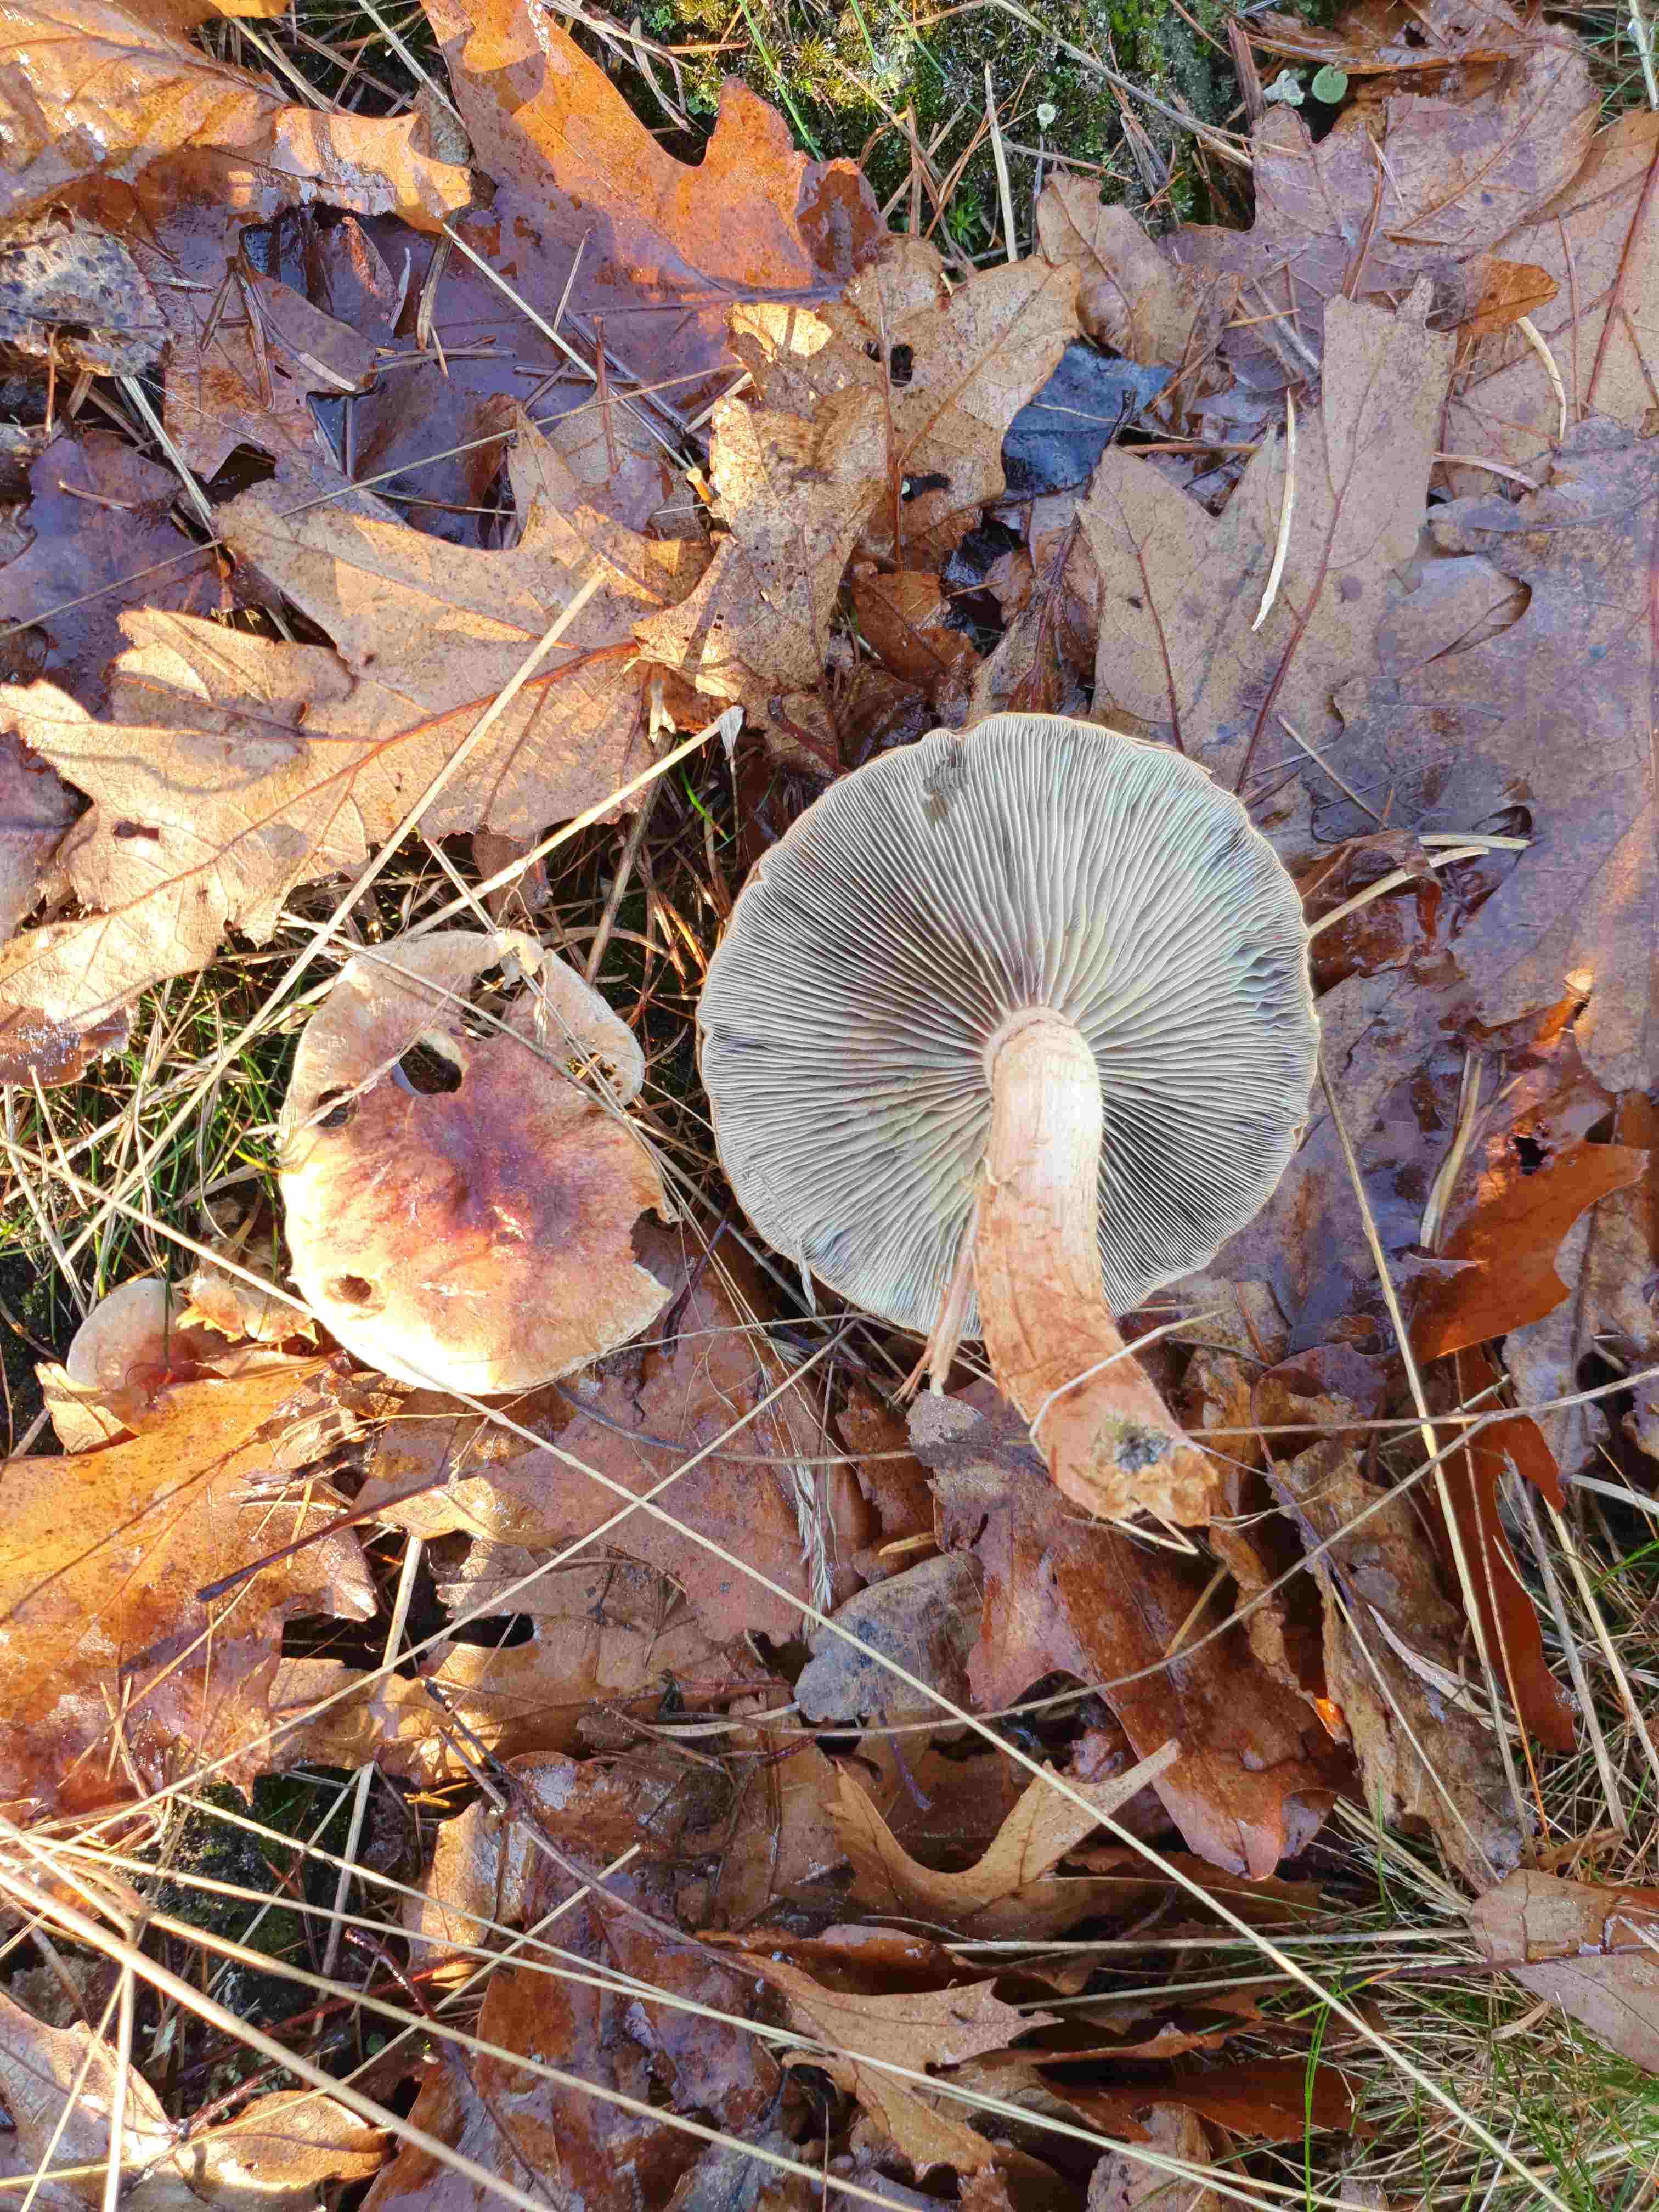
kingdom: Fungi
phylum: Basidiomycota
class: Agaricomycetes
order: Agaricales
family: Strophariaceae
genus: Hypholoma
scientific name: Hypholoma lateritium
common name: teglrød svovlhat
